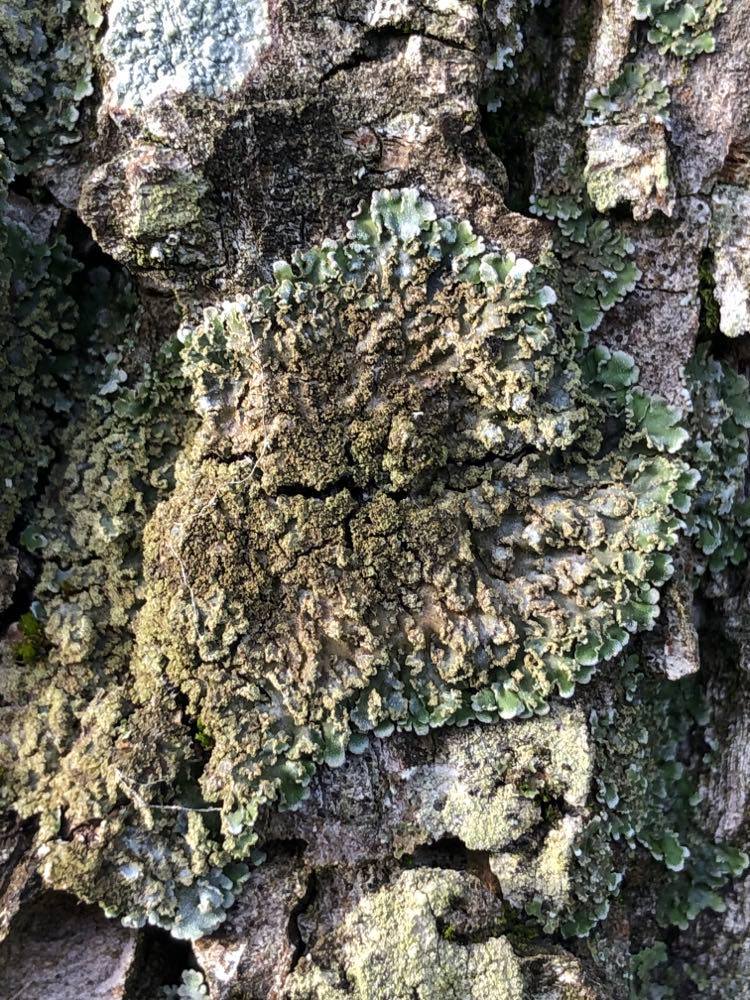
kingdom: Fungi
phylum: Ascomycota
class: Lecanoromycetes
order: Caliciales
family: Physciaceae
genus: Physconia
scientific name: Physconia
